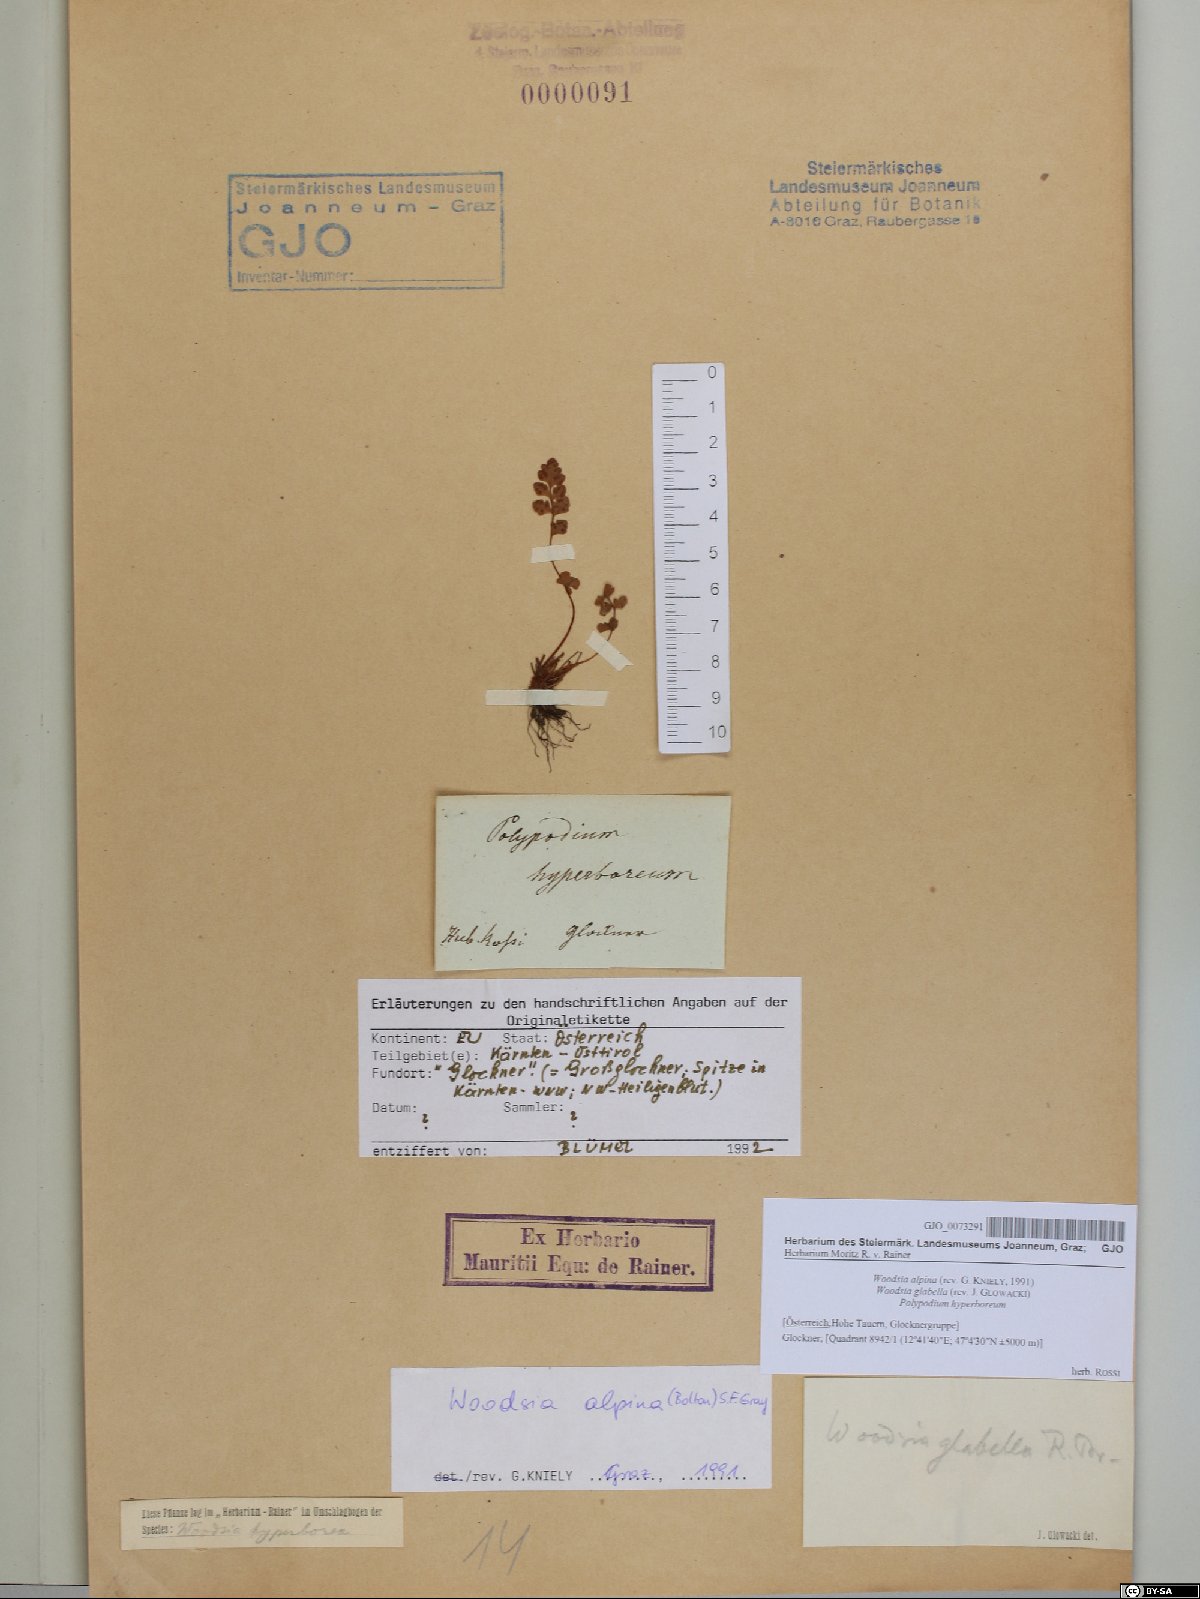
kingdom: Plantae
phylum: Tracheophyta
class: Polypodiopsida
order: Polypodiales
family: Woodsiaceae
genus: Woodsia
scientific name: Woodsia alpina
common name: Alpine woodsia
